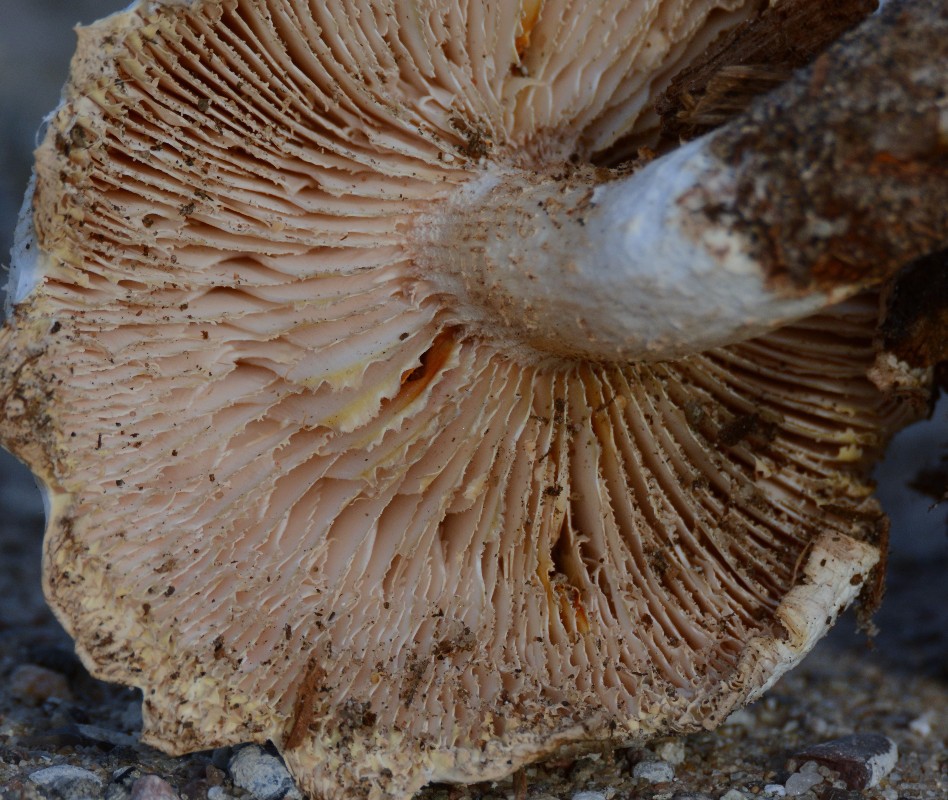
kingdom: Fungi
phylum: Basidiomycota
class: Agaricomycetes
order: Gloeophyllales
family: Gloeophyllaceae
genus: Neolentinus
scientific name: Neolentinus lepideus
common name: skællet sejhat
